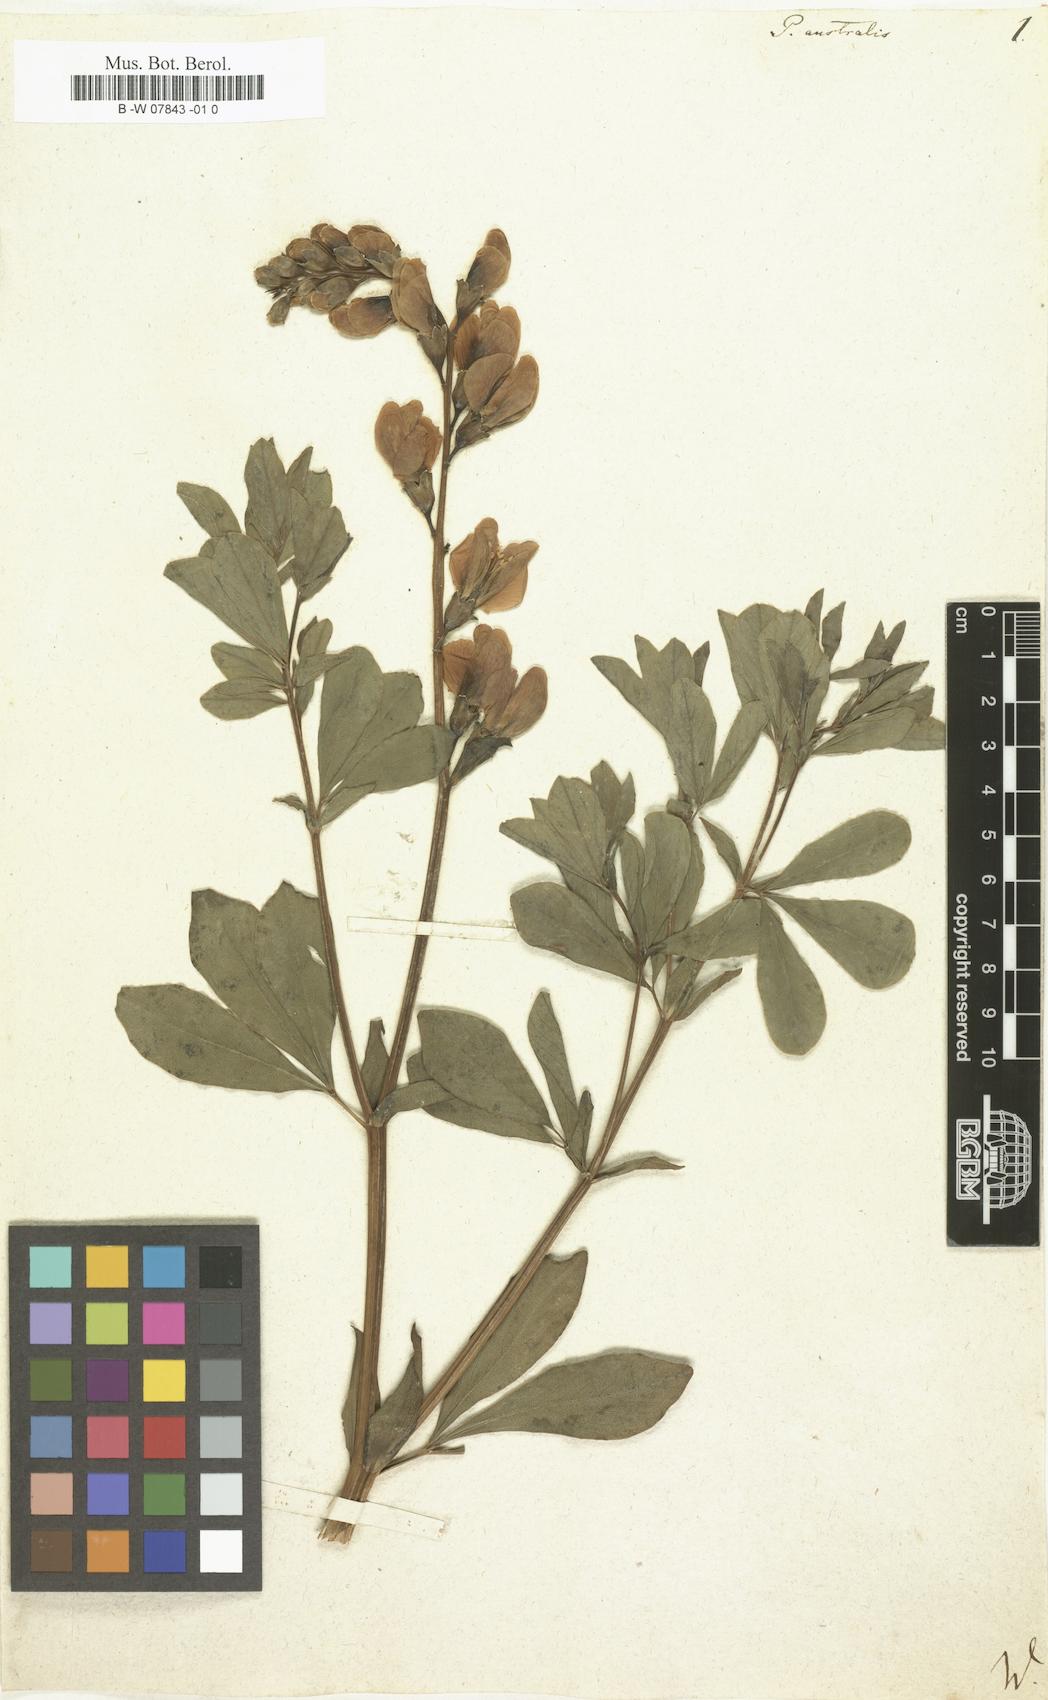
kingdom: Plantae
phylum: Tracheophyta
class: Magnoliopsida
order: Fabales
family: Fabaceae
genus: Baptisia
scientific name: Baptisia australis
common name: Blue false indigo
